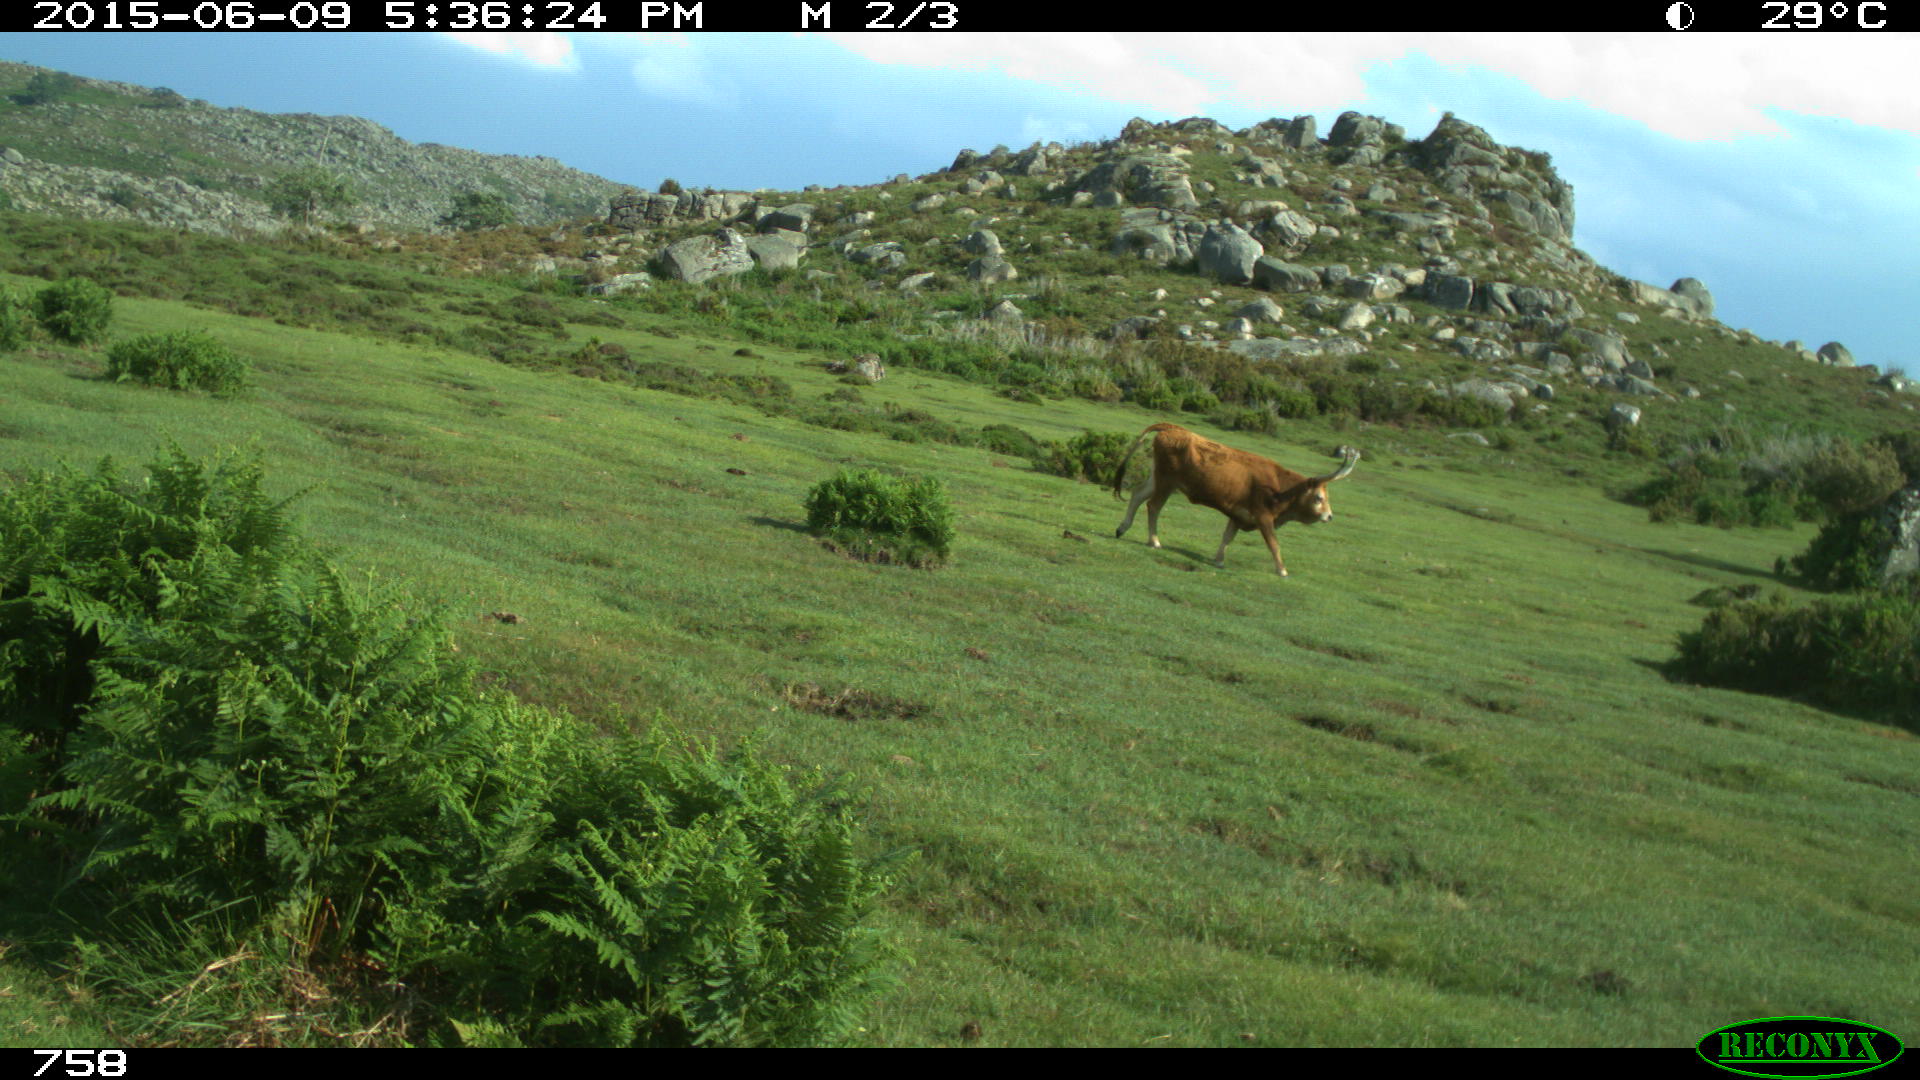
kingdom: Animalia
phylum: Chordata
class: Mammalia
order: Artiodactyla
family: Bovidae
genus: Bos
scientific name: Bos taurus
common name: Domesticated cattle
